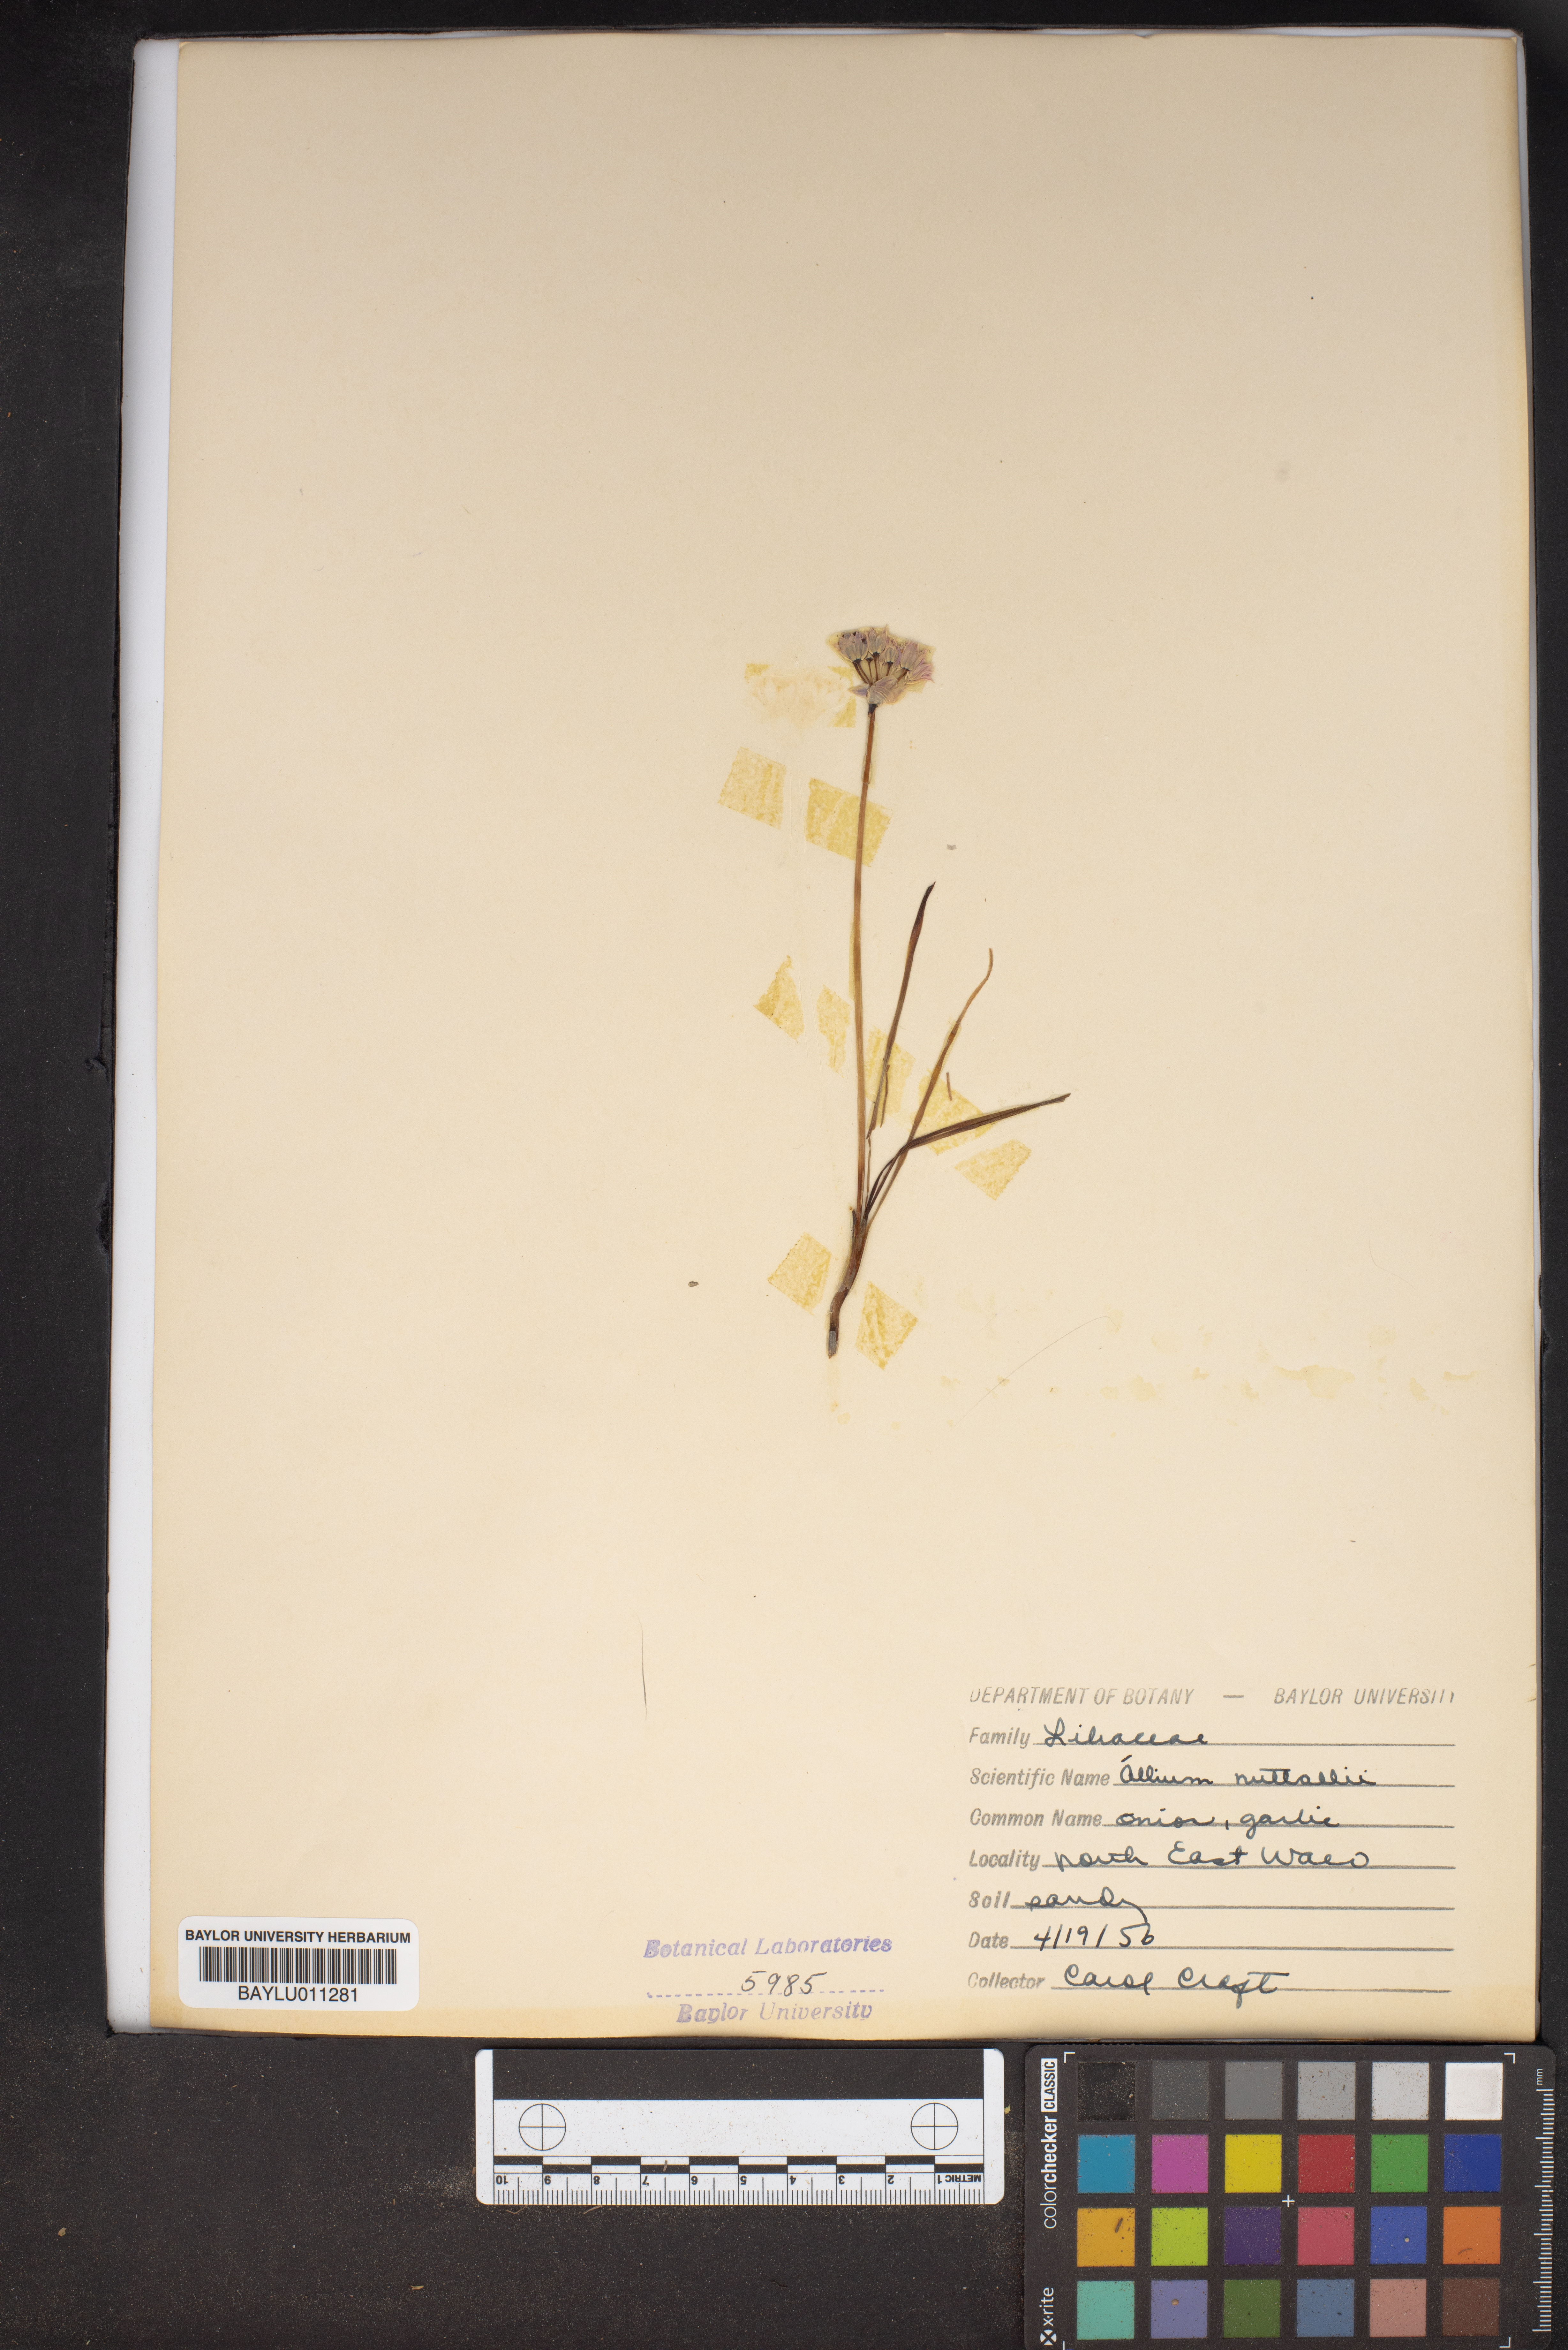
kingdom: Plantae
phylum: Tracheophyta
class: Liliopsida
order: Asparagales
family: Amaryllidaceae
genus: Allium
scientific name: Allium drummondii
